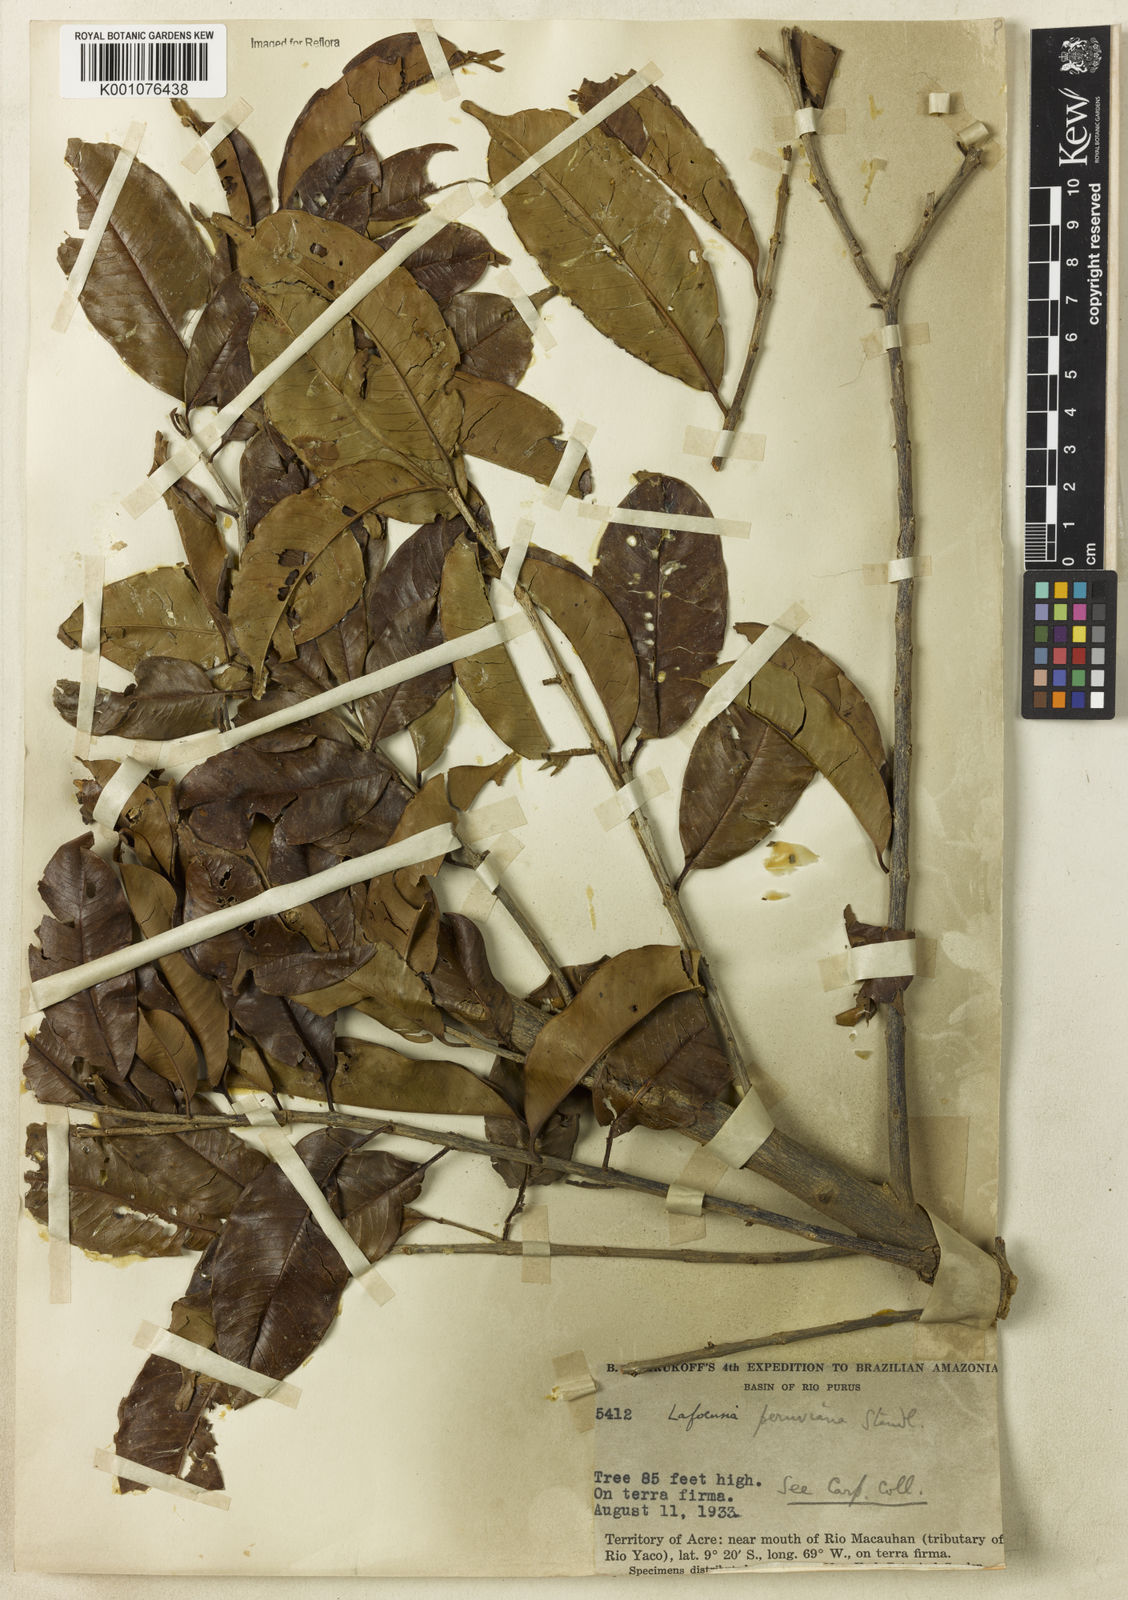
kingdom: Plantae
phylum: Tracheophyta
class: Magnoliopsida
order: Myrtales
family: Lythraceae
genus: Lafoensia
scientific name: Lafoensia
